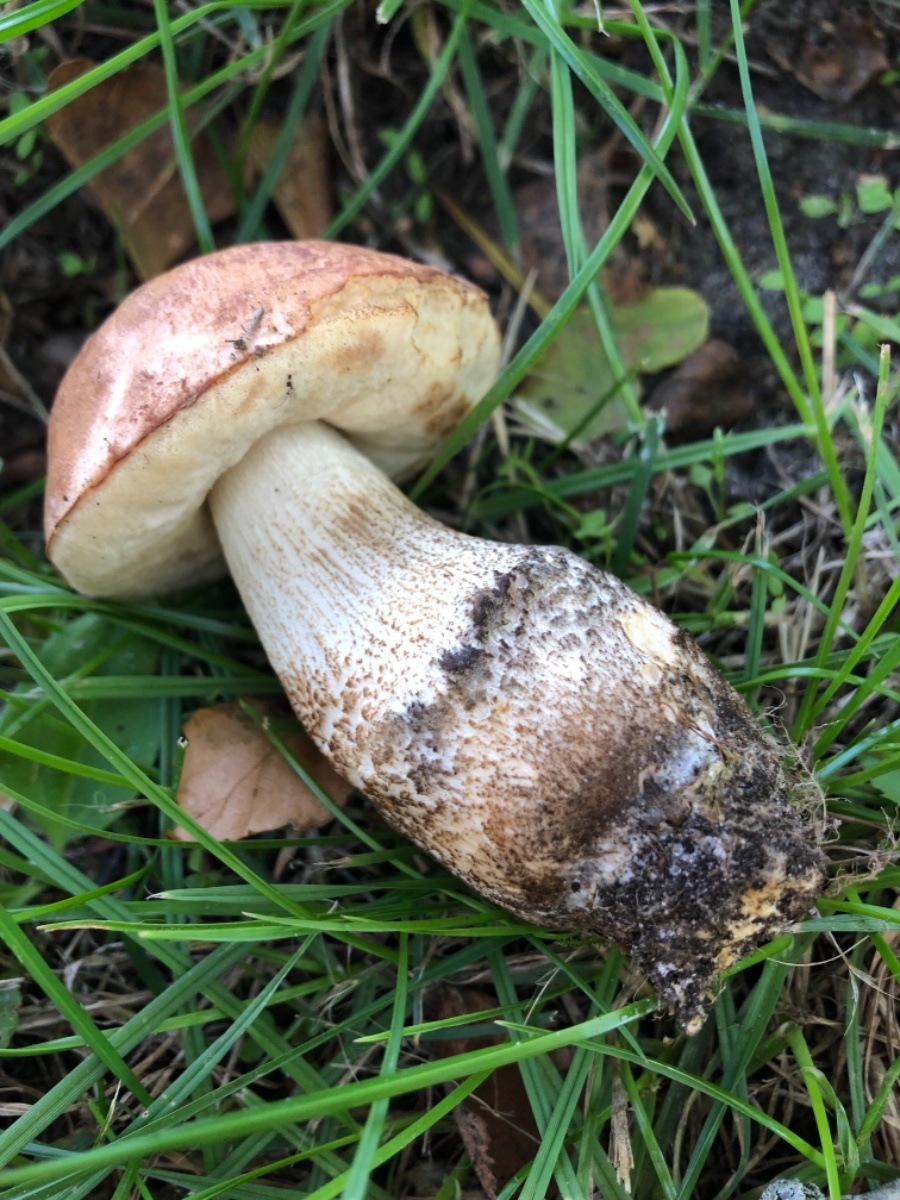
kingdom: Fungi
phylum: Basidiomycota
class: Agaricomycetes
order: Boletales
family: Boletaceae
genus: Leccinum
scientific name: Leccinum versipelle
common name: orange skælrørhat
